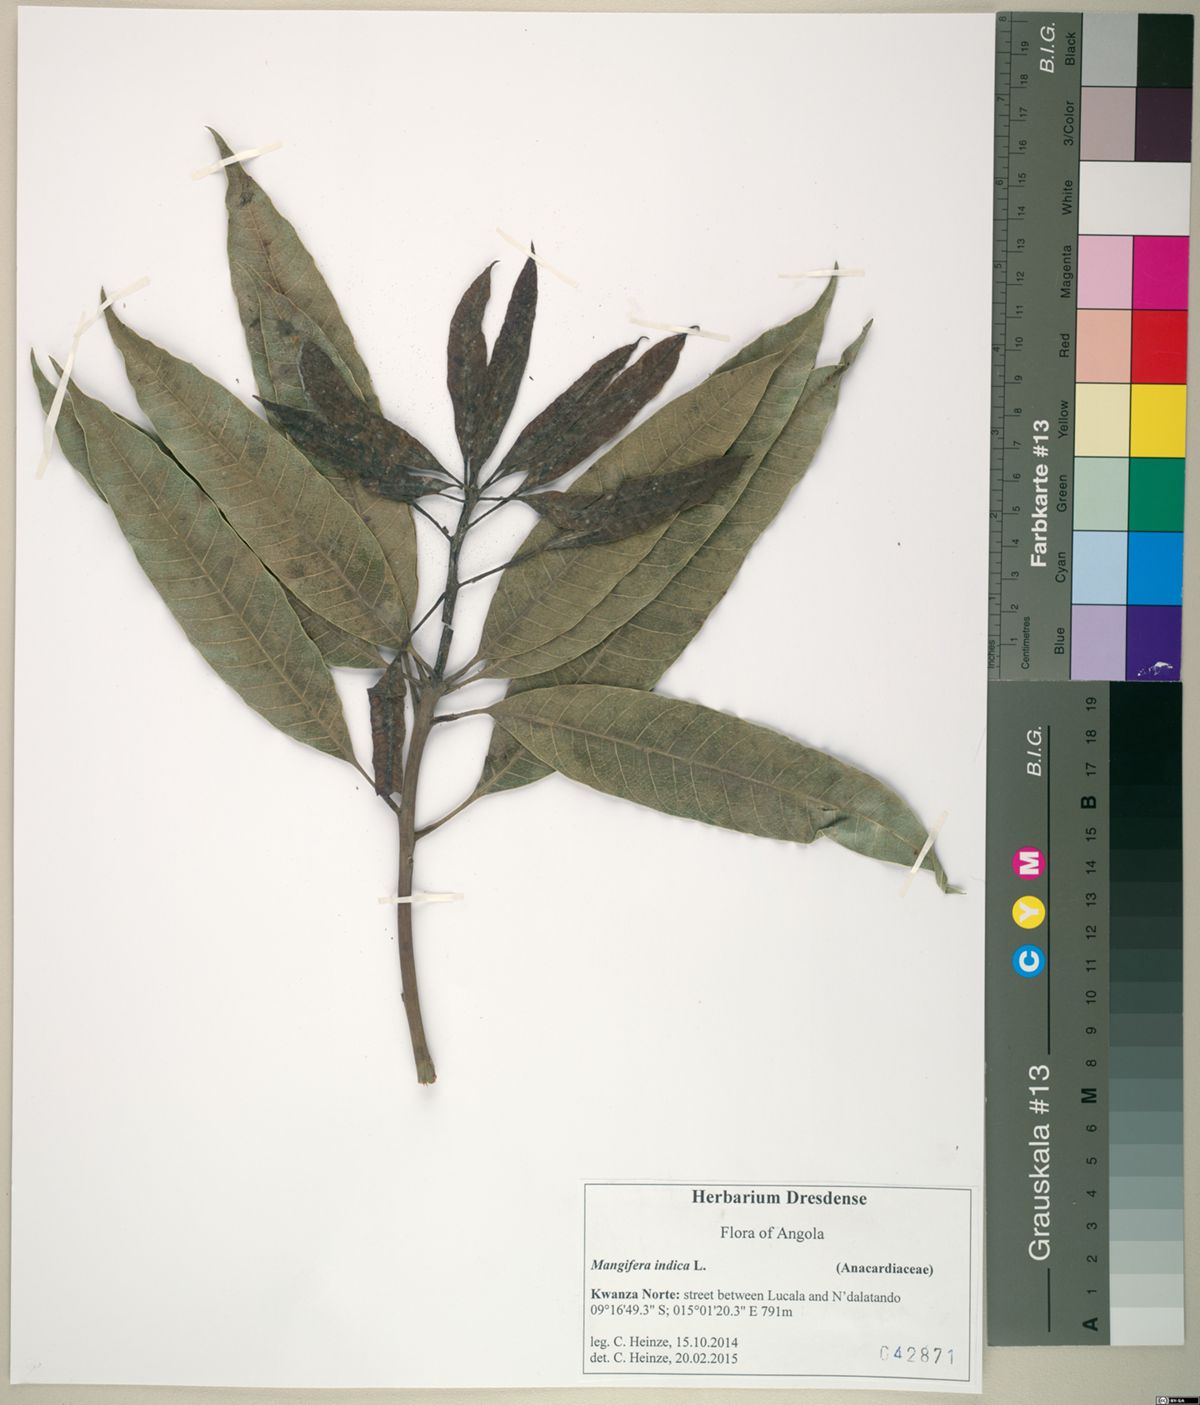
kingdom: Plantae
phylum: Tracheophyta
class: Magnoliopsida
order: Sapindales
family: Anacardiaceae
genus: Mangifera
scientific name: Mangifera indica
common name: Mango
